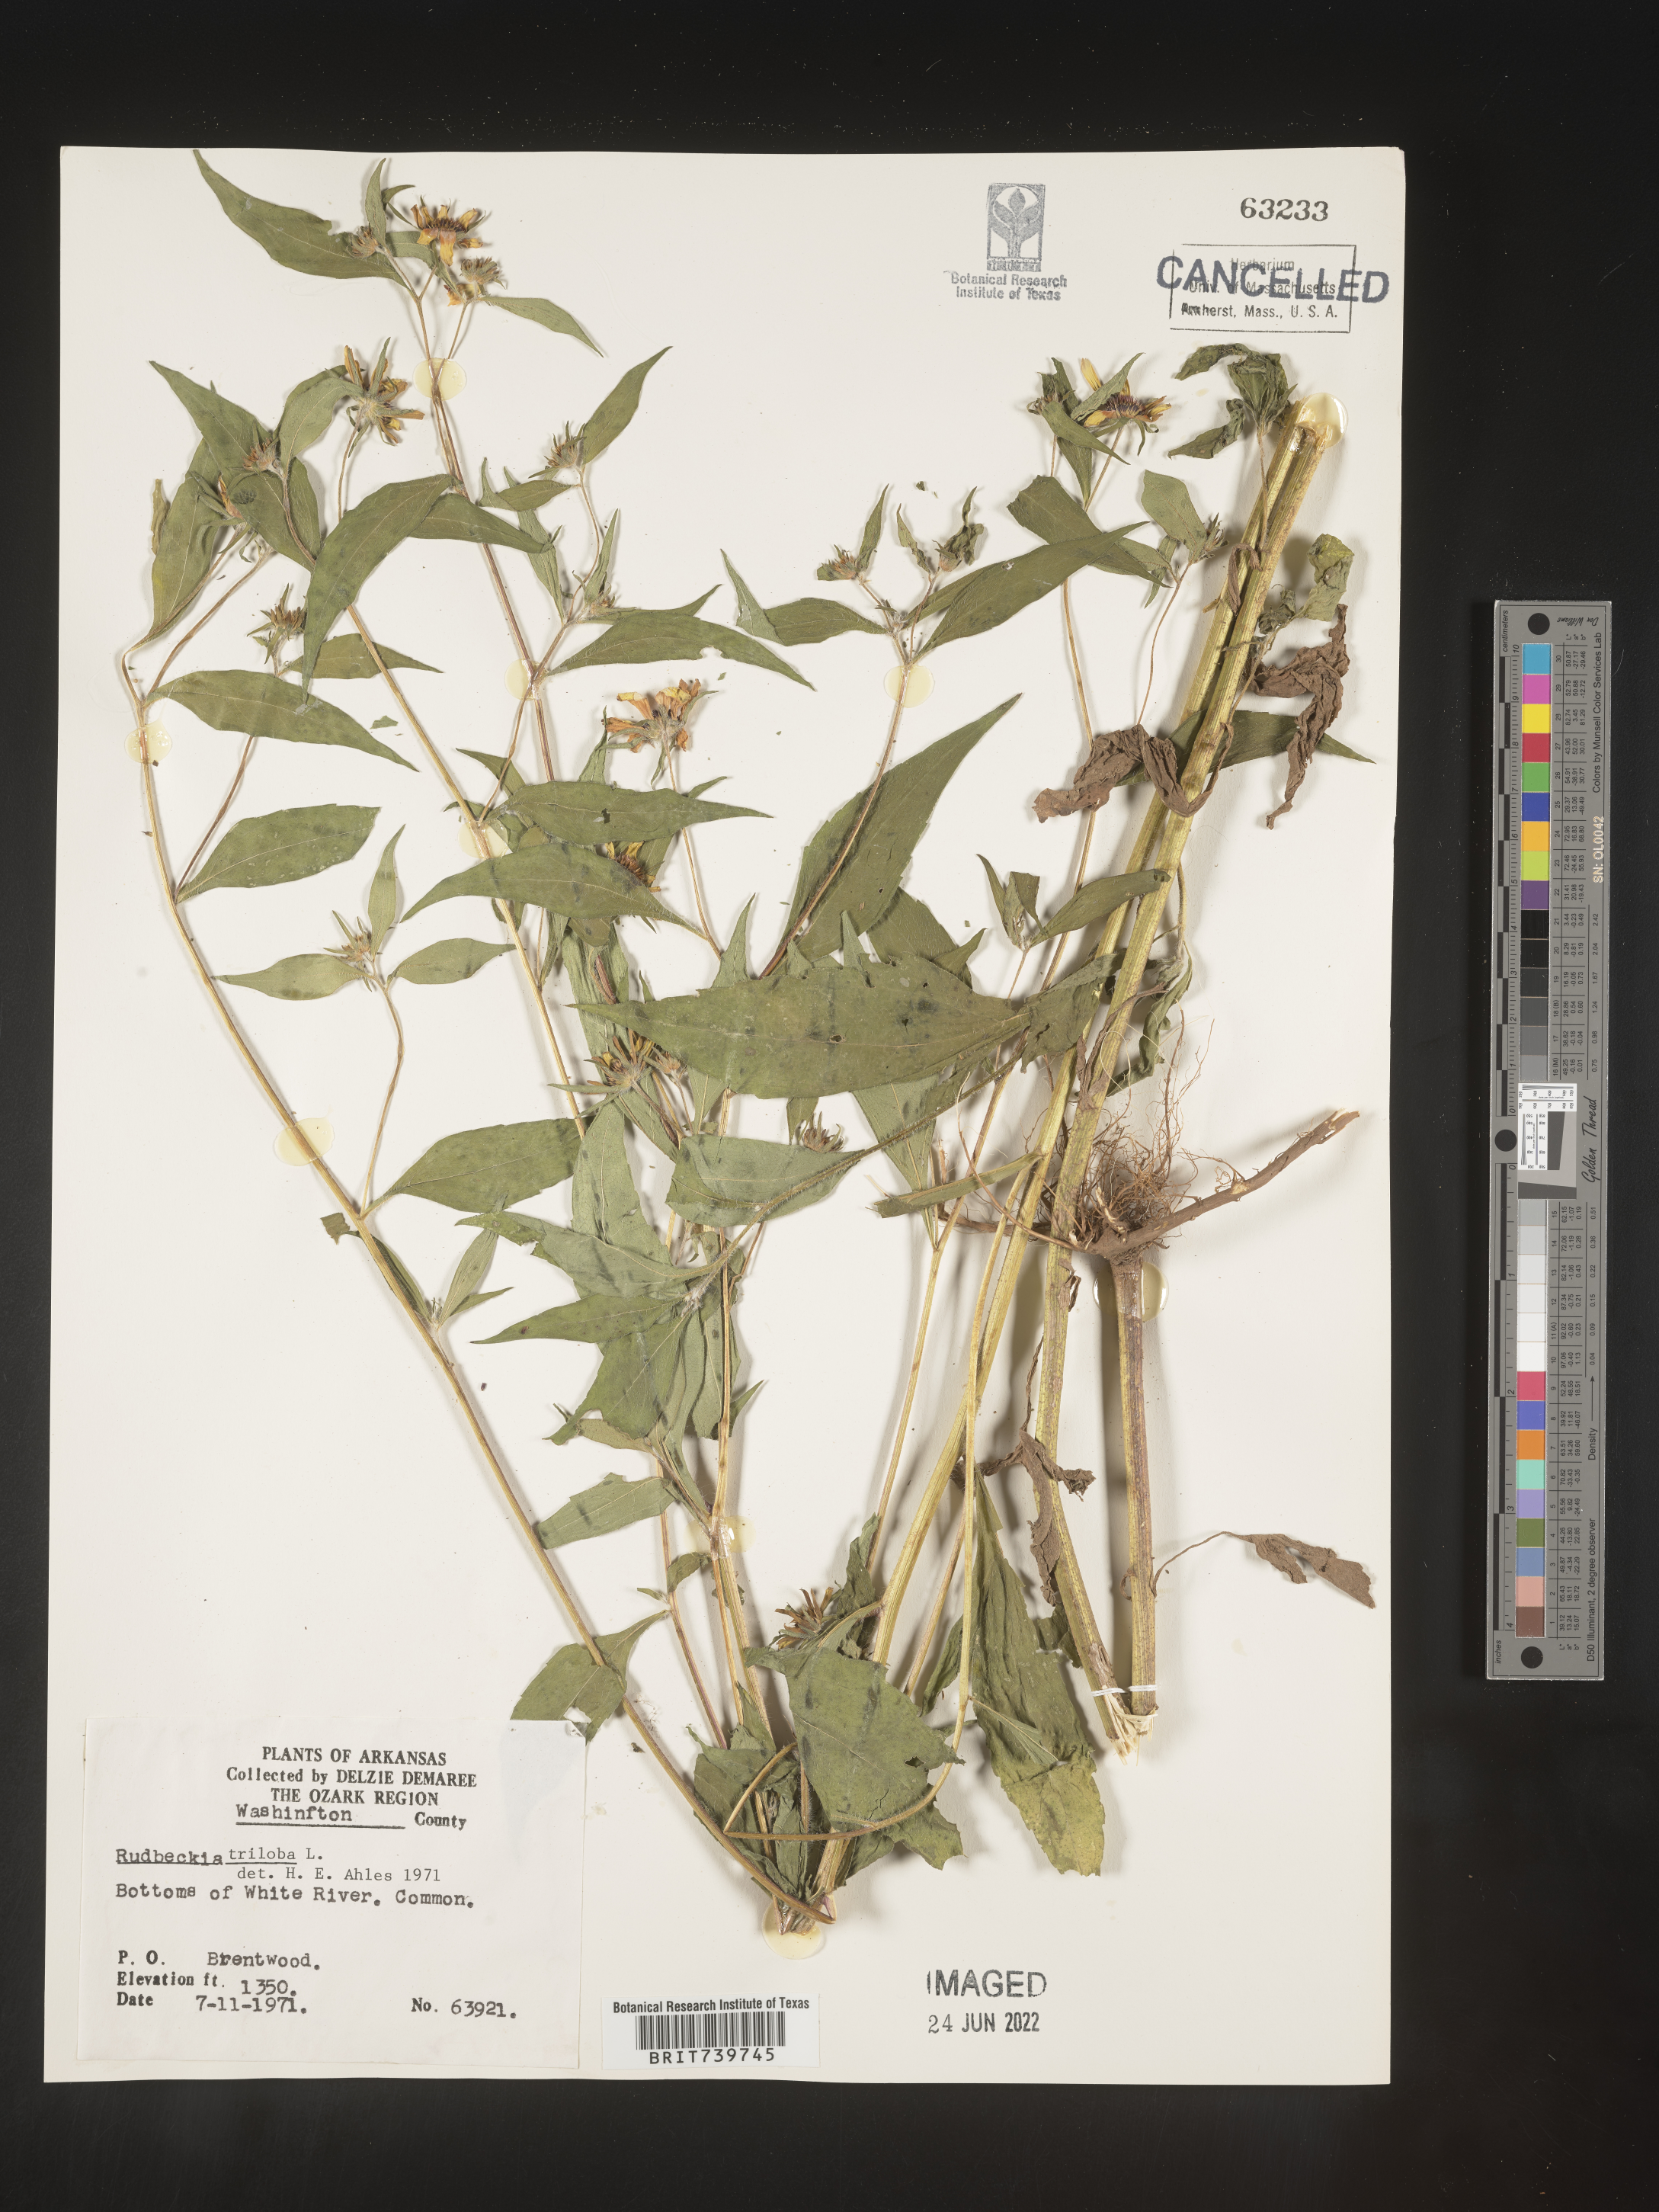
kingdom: Plantae
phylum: Tracheophyta
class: Magnoliopsida
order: Asterales
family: Asteraceae
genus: Rudbeckia
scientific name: Rudbeckia triloba
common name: Thin-leaved coneflower
